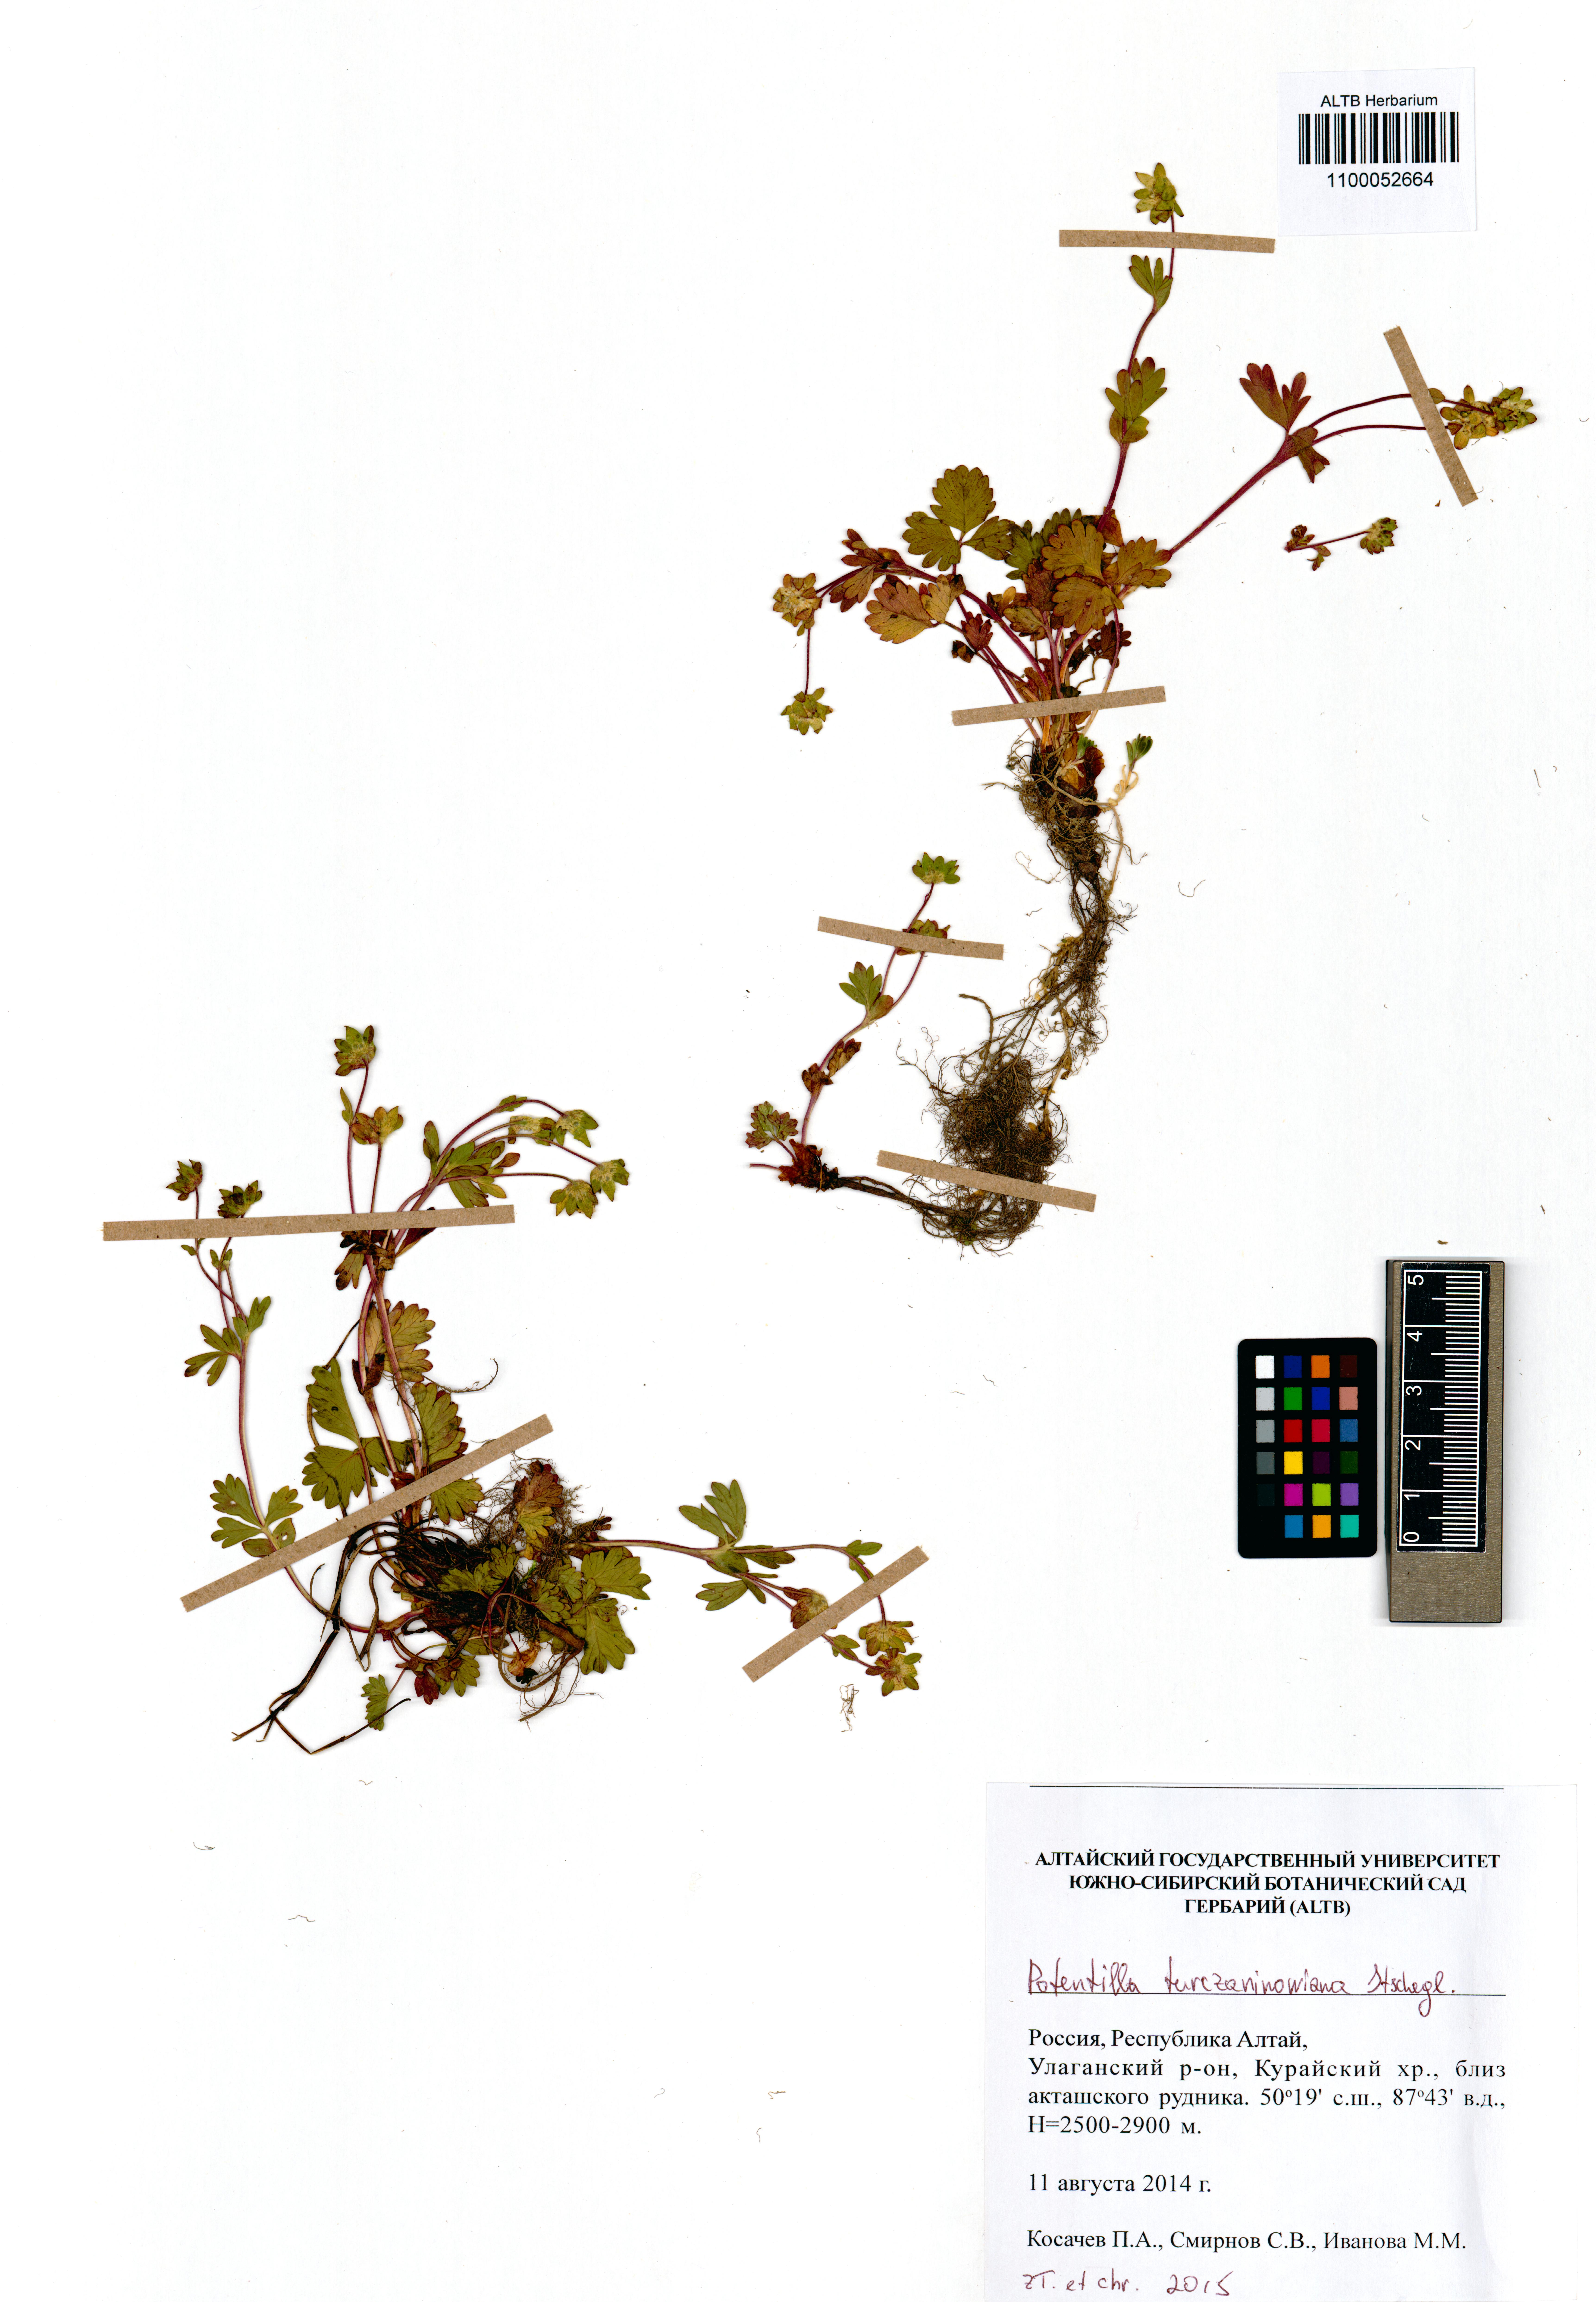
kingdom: Plantae
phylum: Tracheophyta
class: Magnoliopsida
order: Rosales
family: Rosaceae
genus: Potentilla
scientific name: Potentilla turczaninowiana
